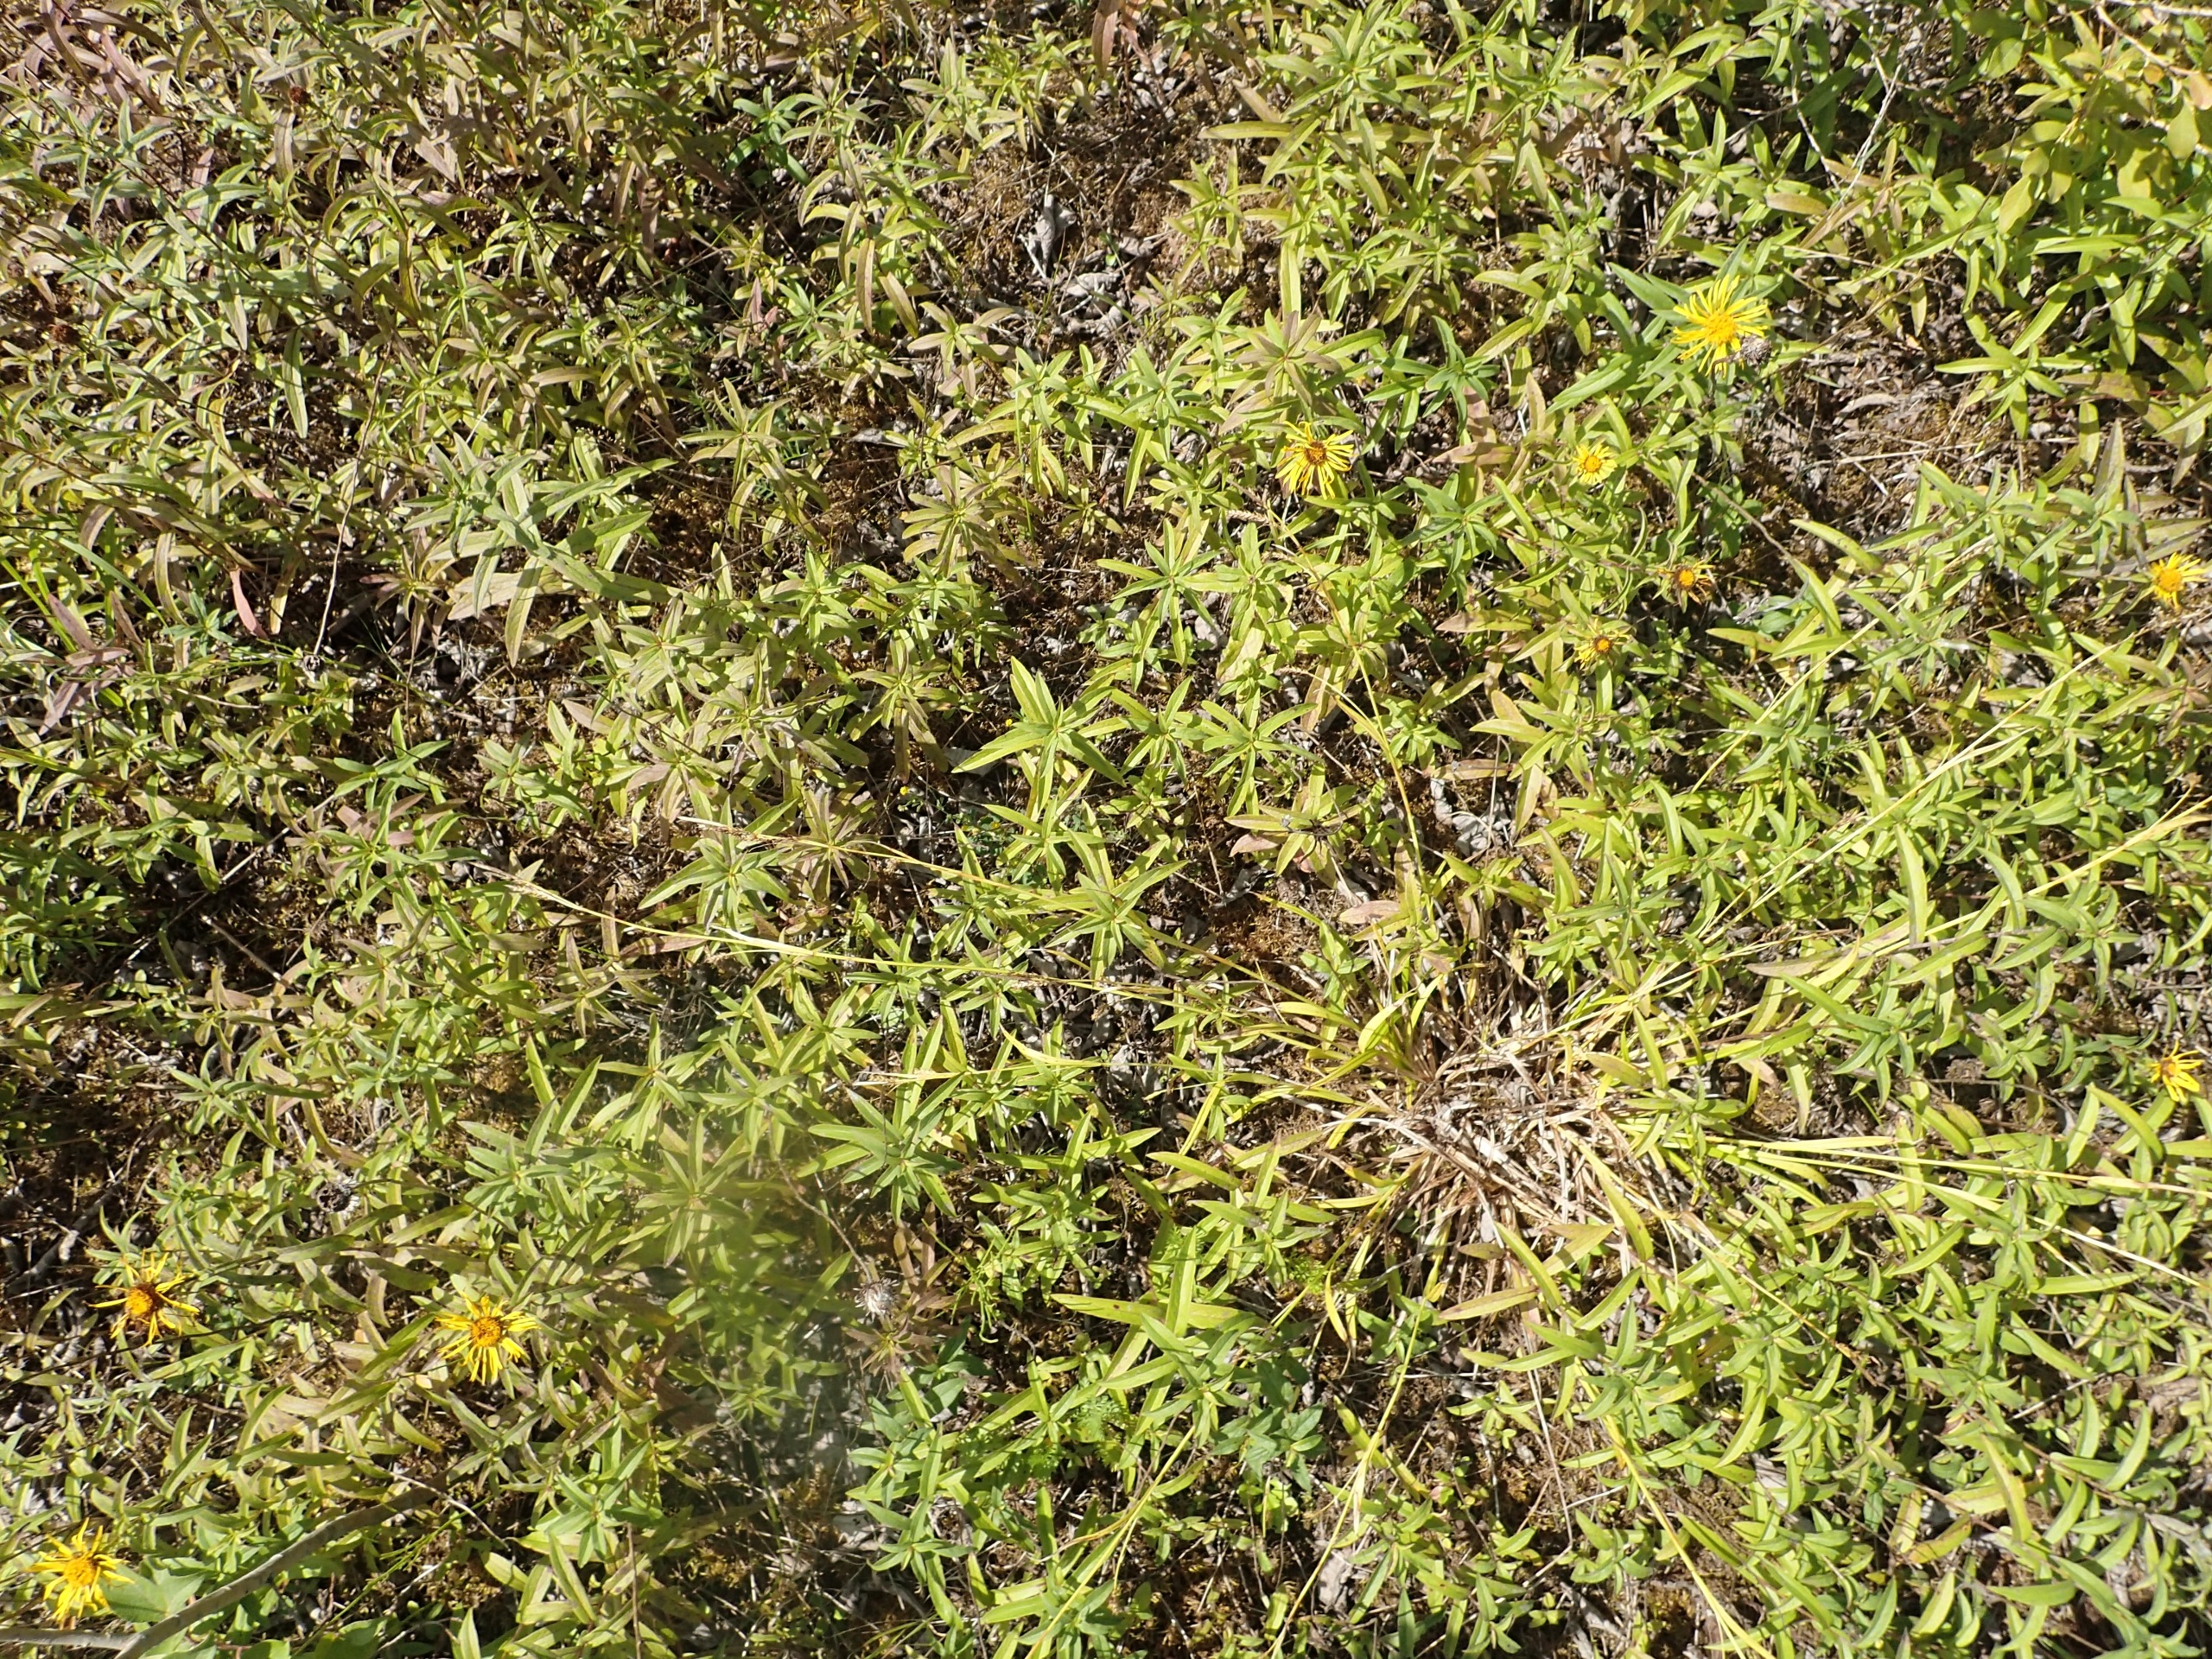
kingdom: Plantae
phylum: Tracheophyta
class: Magnoliopsida
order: Asterales
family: Asteraceae
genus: Pentanema
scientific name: Pentanema salicinum
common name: Pile-alant
